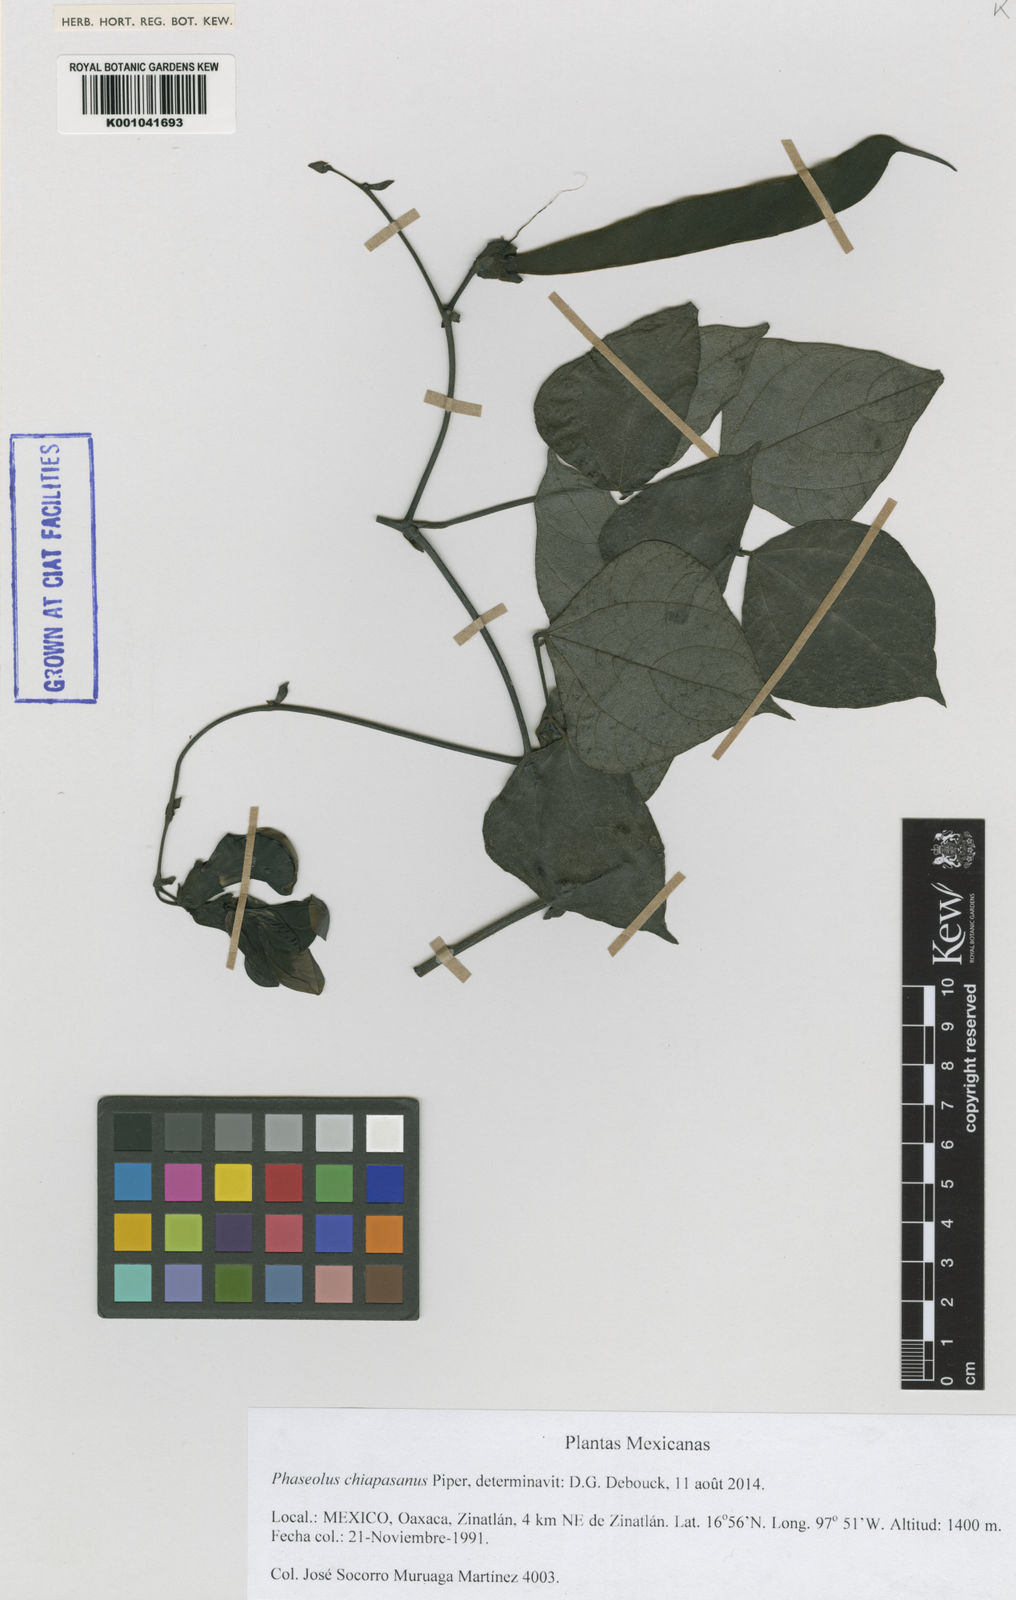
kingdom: Plantae
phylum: Tracheophyta
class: Magnoliopsida
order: Fabales
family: Fabaceae
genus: Phaseolus
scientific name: Phaseolus chiapasanus
